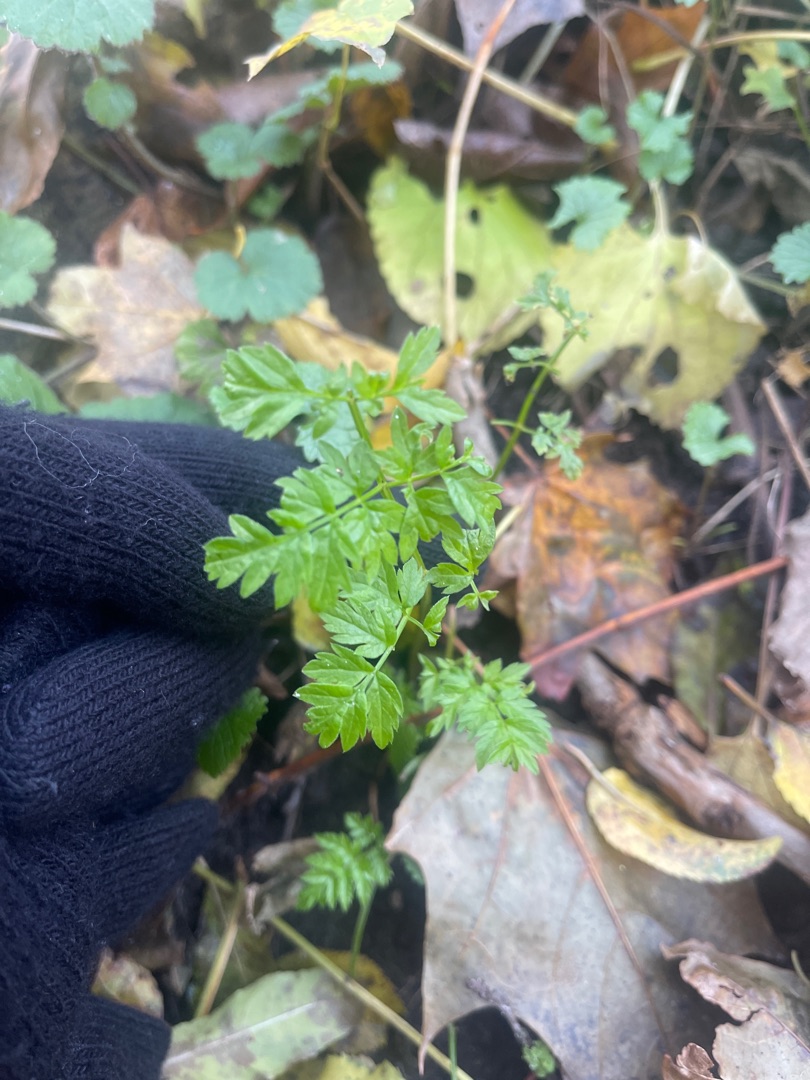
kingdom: Plantae
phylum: Tracheophyta
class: Magnoliopsida
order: Apiales
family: Apiaceae
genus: Anthriscus
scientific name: Anthriscus sylvestris
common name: Vild kørvel
